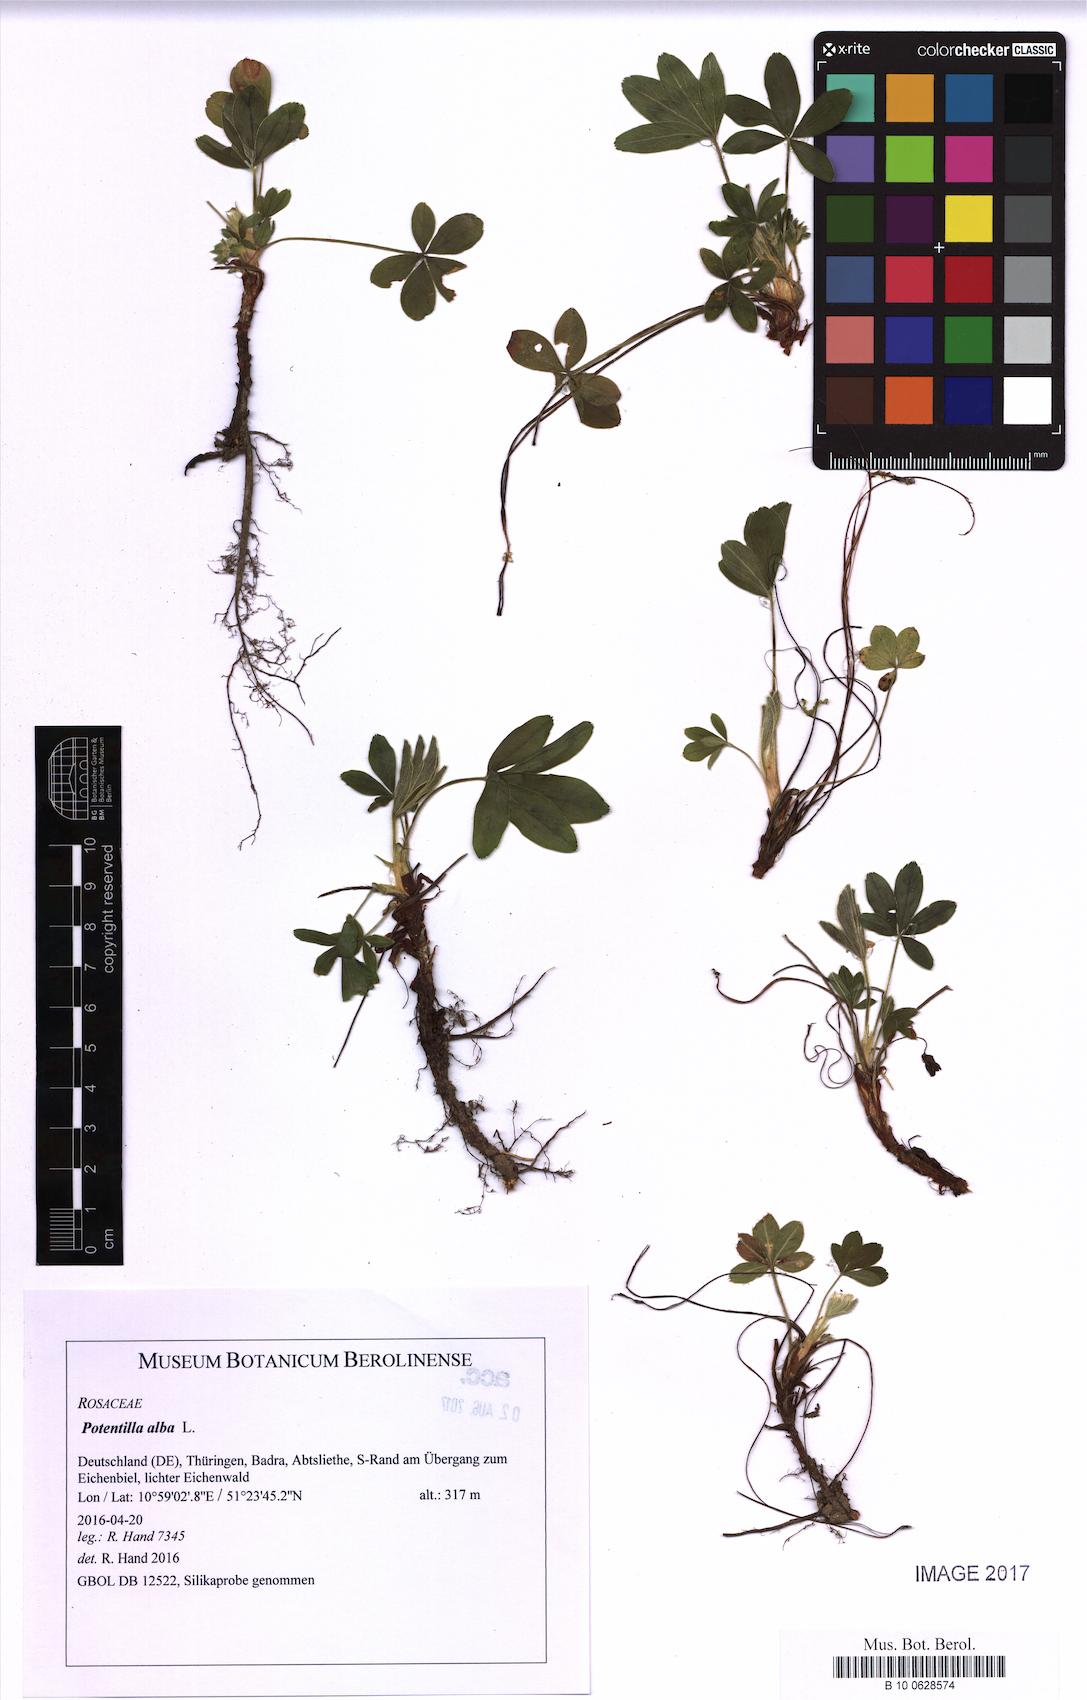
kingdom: Plantae
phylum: Tracheophyta
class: Magnoliopsida
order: Rosales
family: Rosaceae
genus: Potentilla
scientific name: Potentilla alba
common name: White cinquefoil
